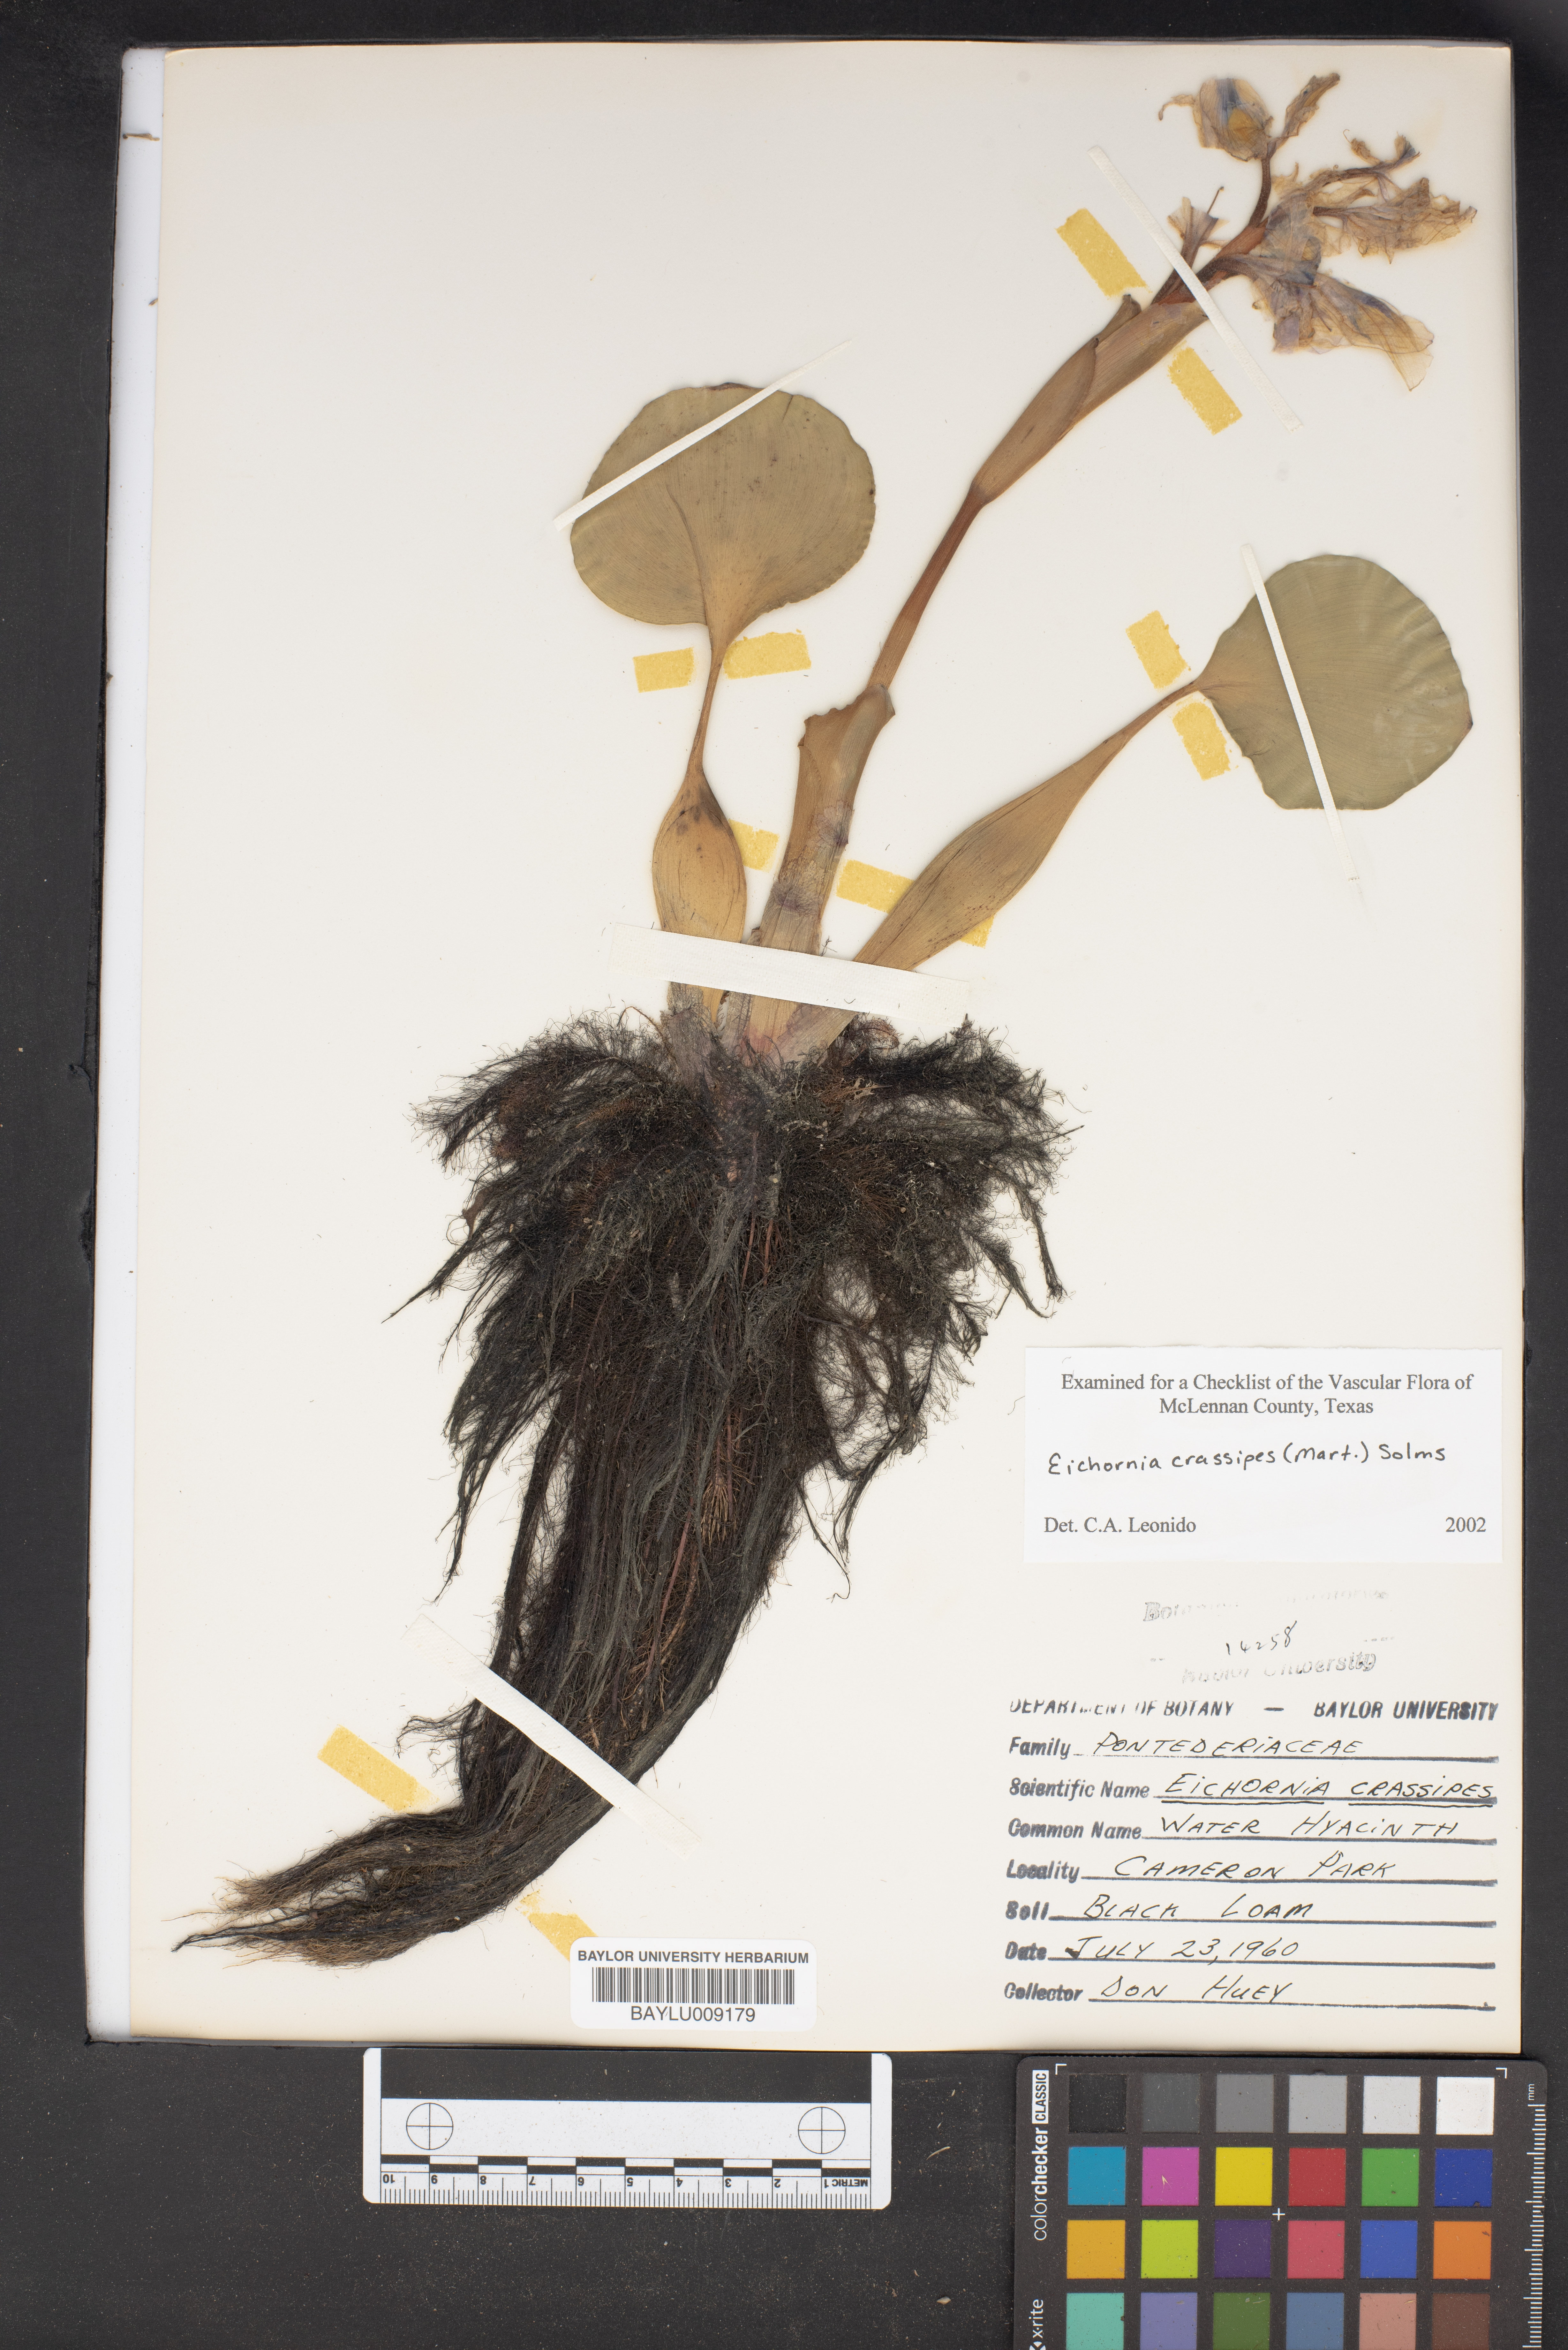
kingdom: Plantae
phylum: Tracheophyta
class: Liliopsida
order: Commelinales
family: Pontederiaceae
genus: Pontederia
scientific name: Pontederia crassipes
